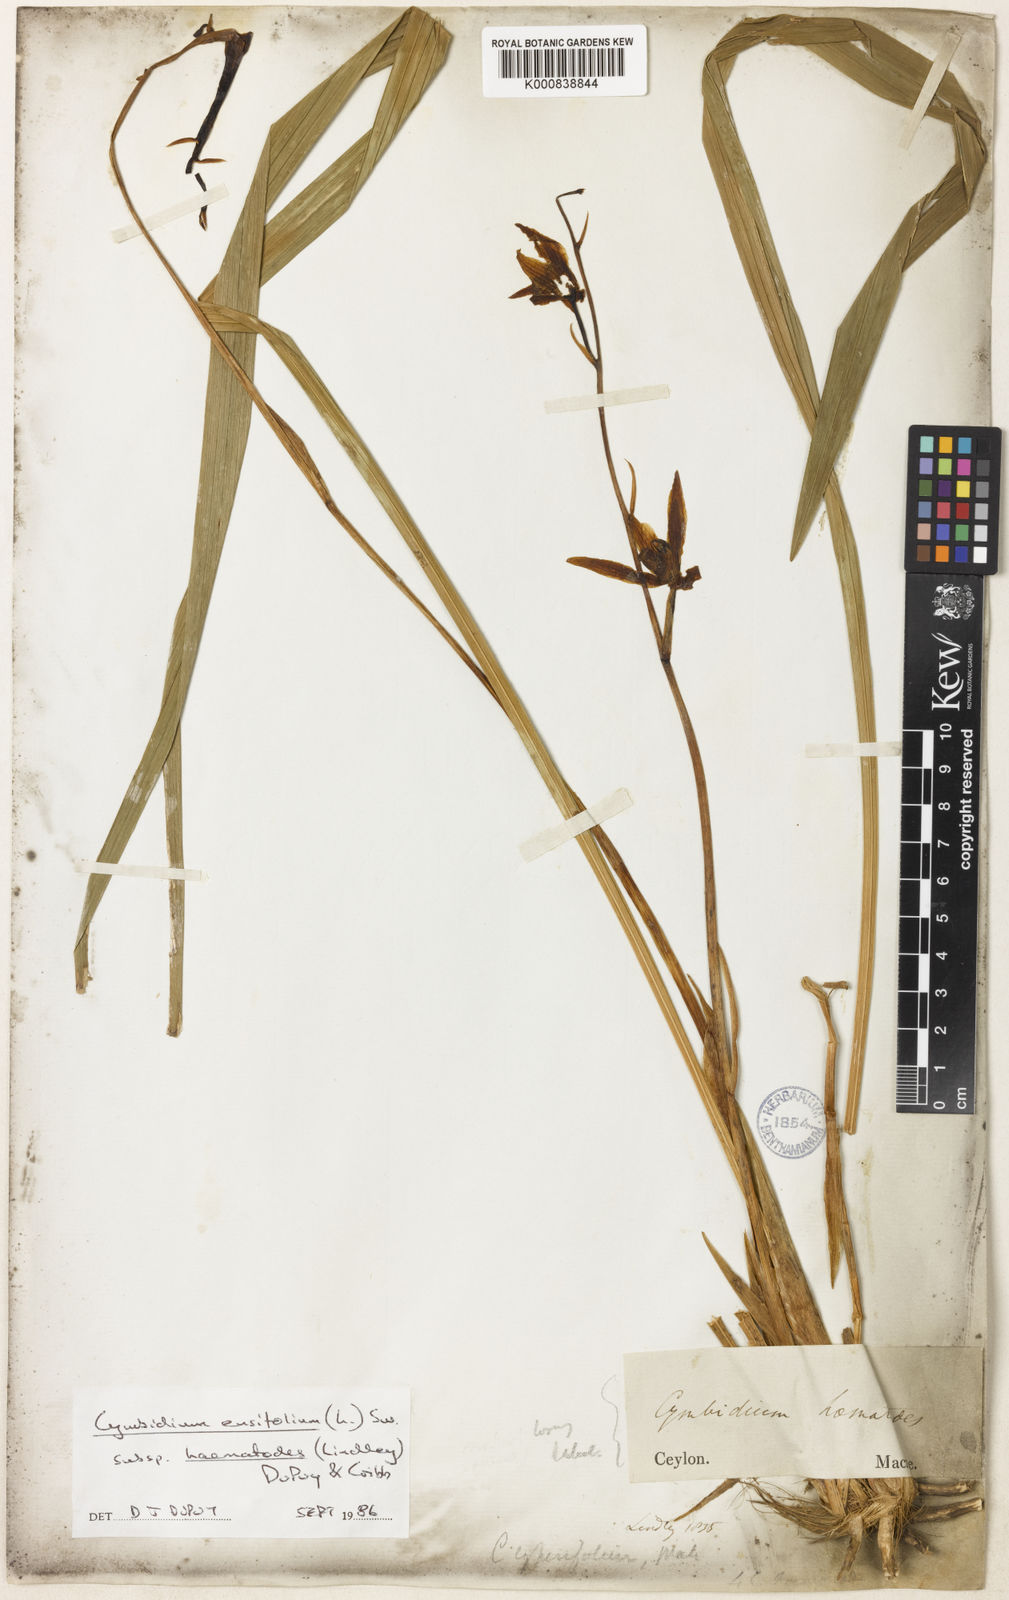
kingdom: Plantae
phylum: Tracheophyta
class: Liliopsida
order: Asparagales
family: Orchidaceae
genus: Cymbidium
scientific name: Cymbidium haematodes
